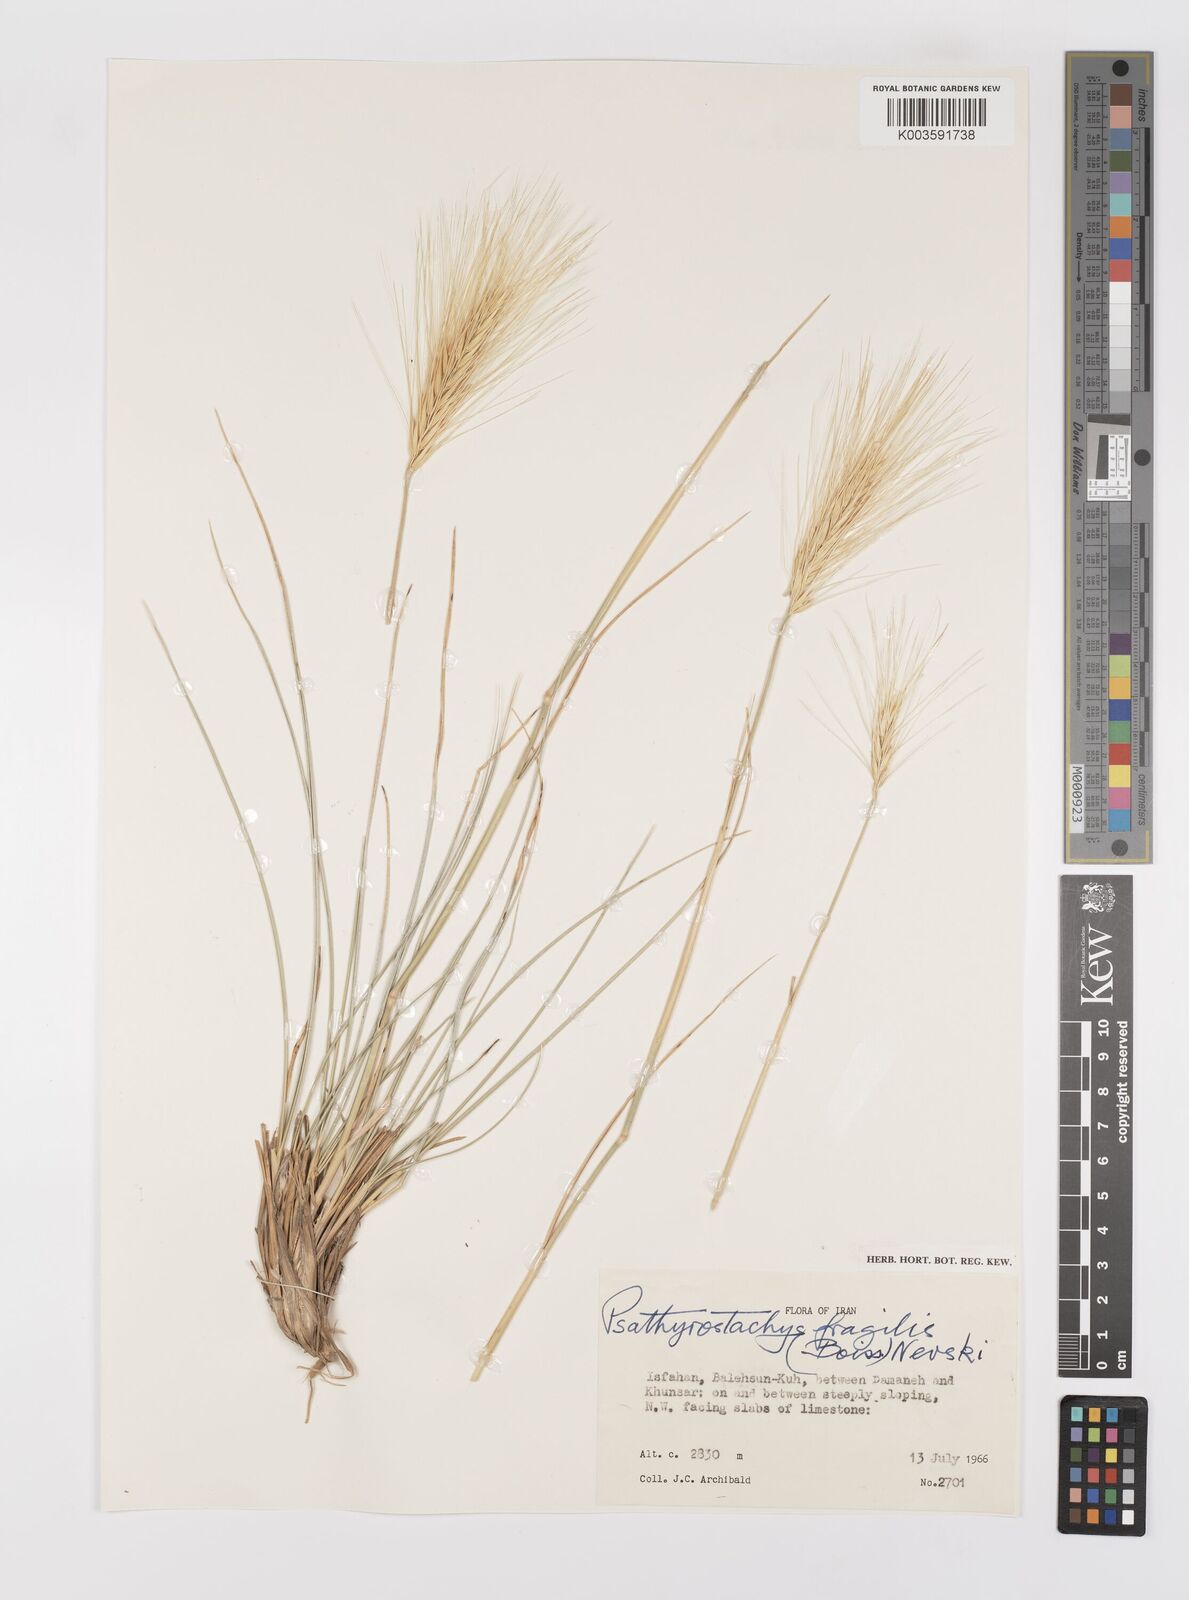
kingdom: Plantae
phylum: Tracheophyta
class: Liliopsida
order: Poales
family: Poaceae
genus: Psathyrostachys
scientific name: Psathyrostachys fragilis
